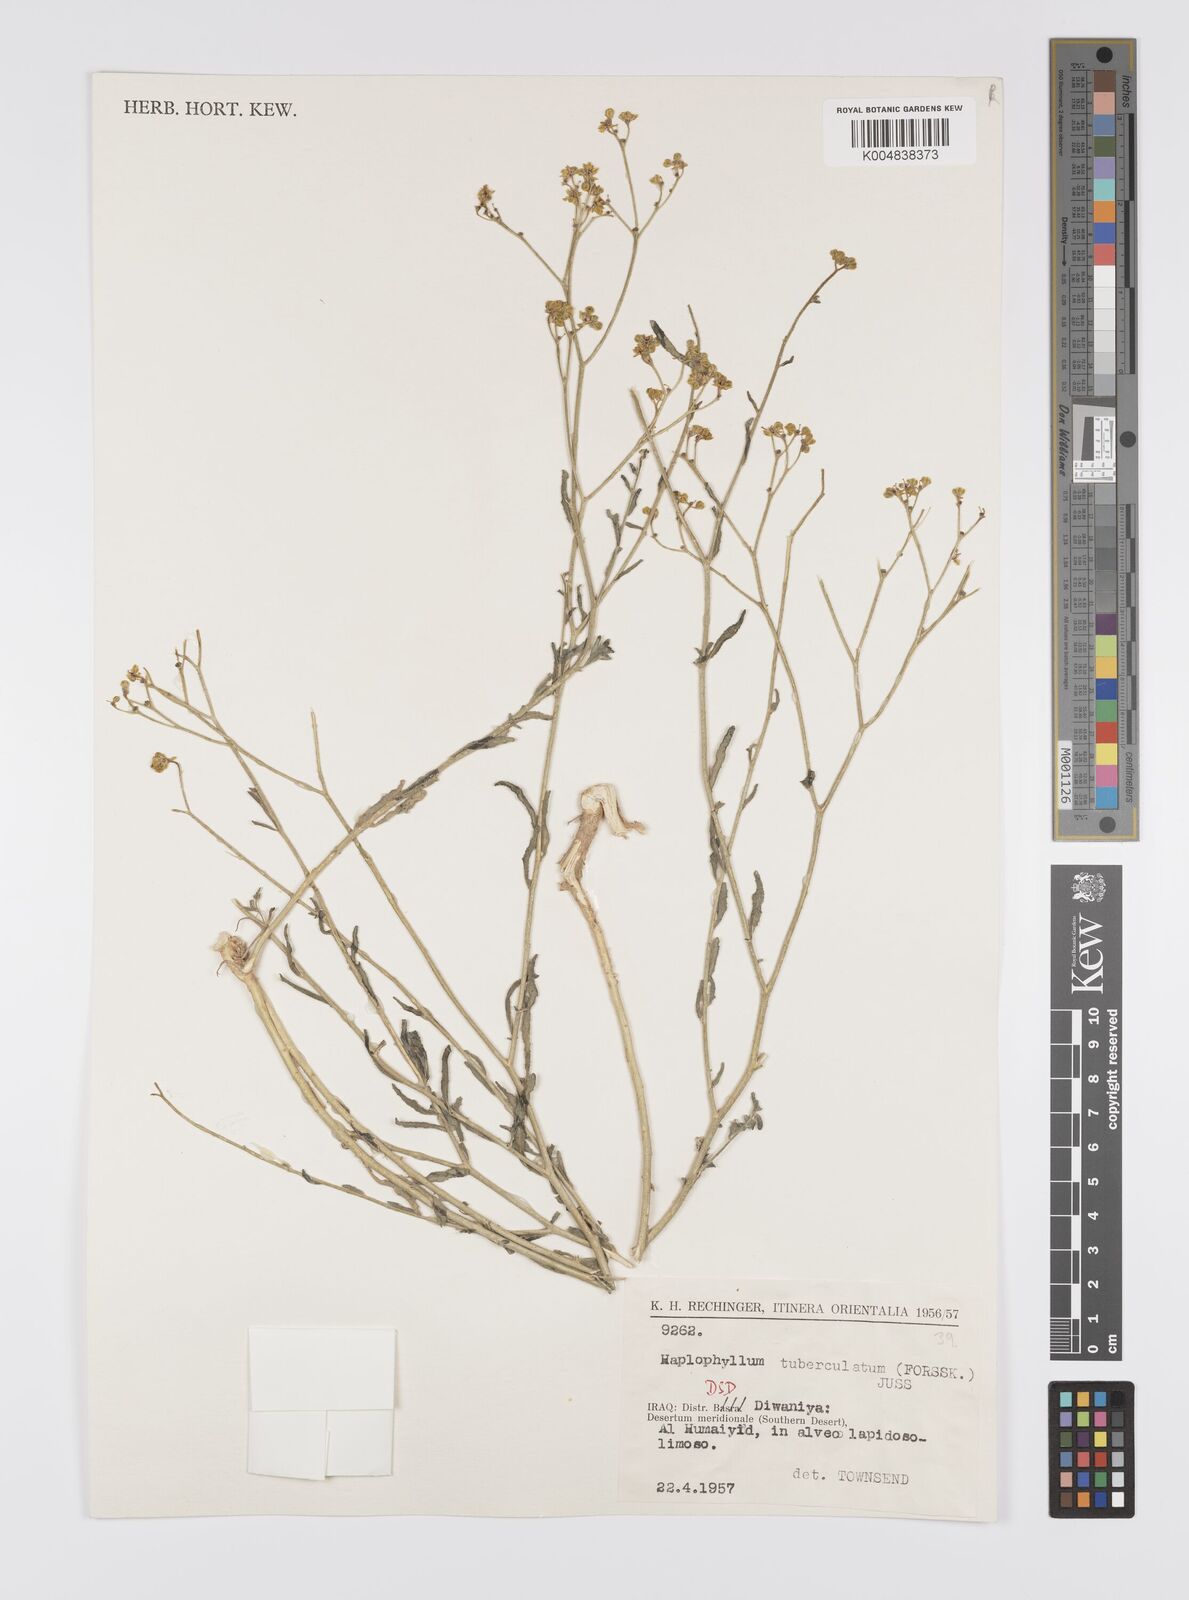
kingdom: Plantae
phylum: Tracheophyta
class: Magnoliopsida
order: Sapindales
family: Rutaceae
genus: Haplophyllum
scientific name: Haplophyllum tuberculatum
